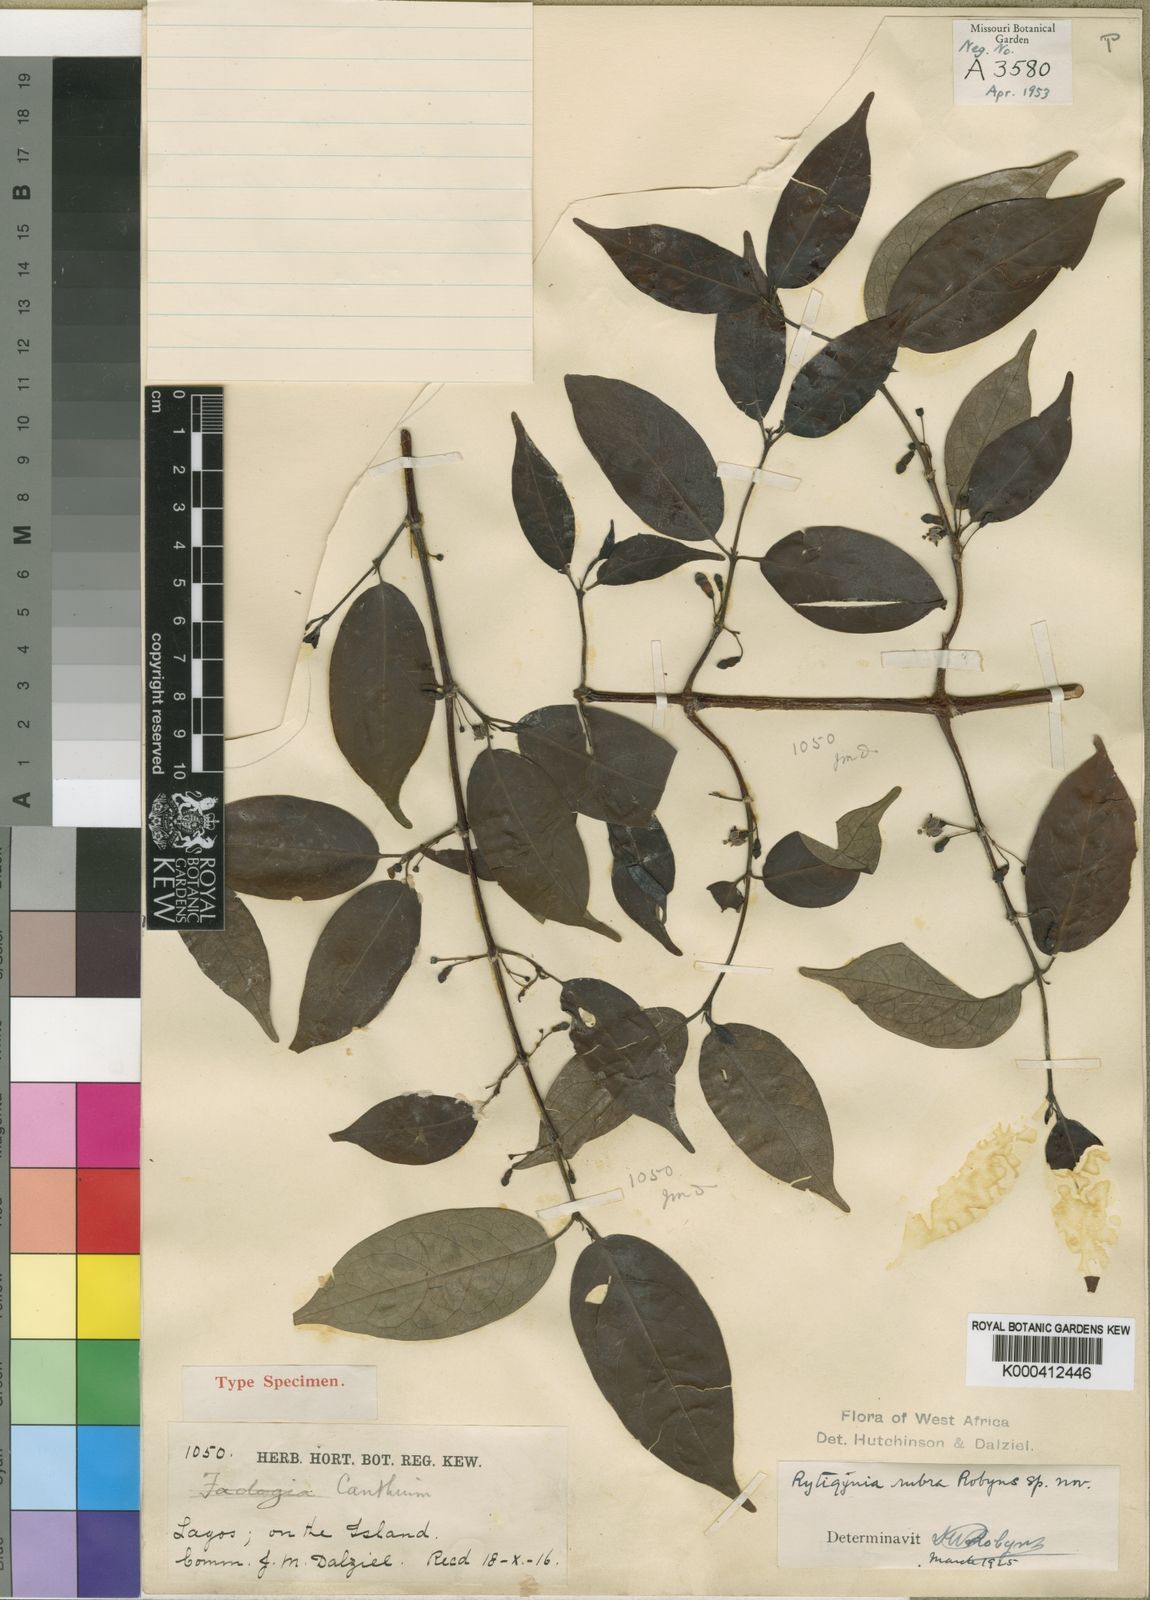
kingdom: Plantae
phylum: Tracheophyta
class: Magnoliopsida
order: Gentianales
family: Rubiaceae
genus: Rytigynia
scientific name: Rytigynia rubra
